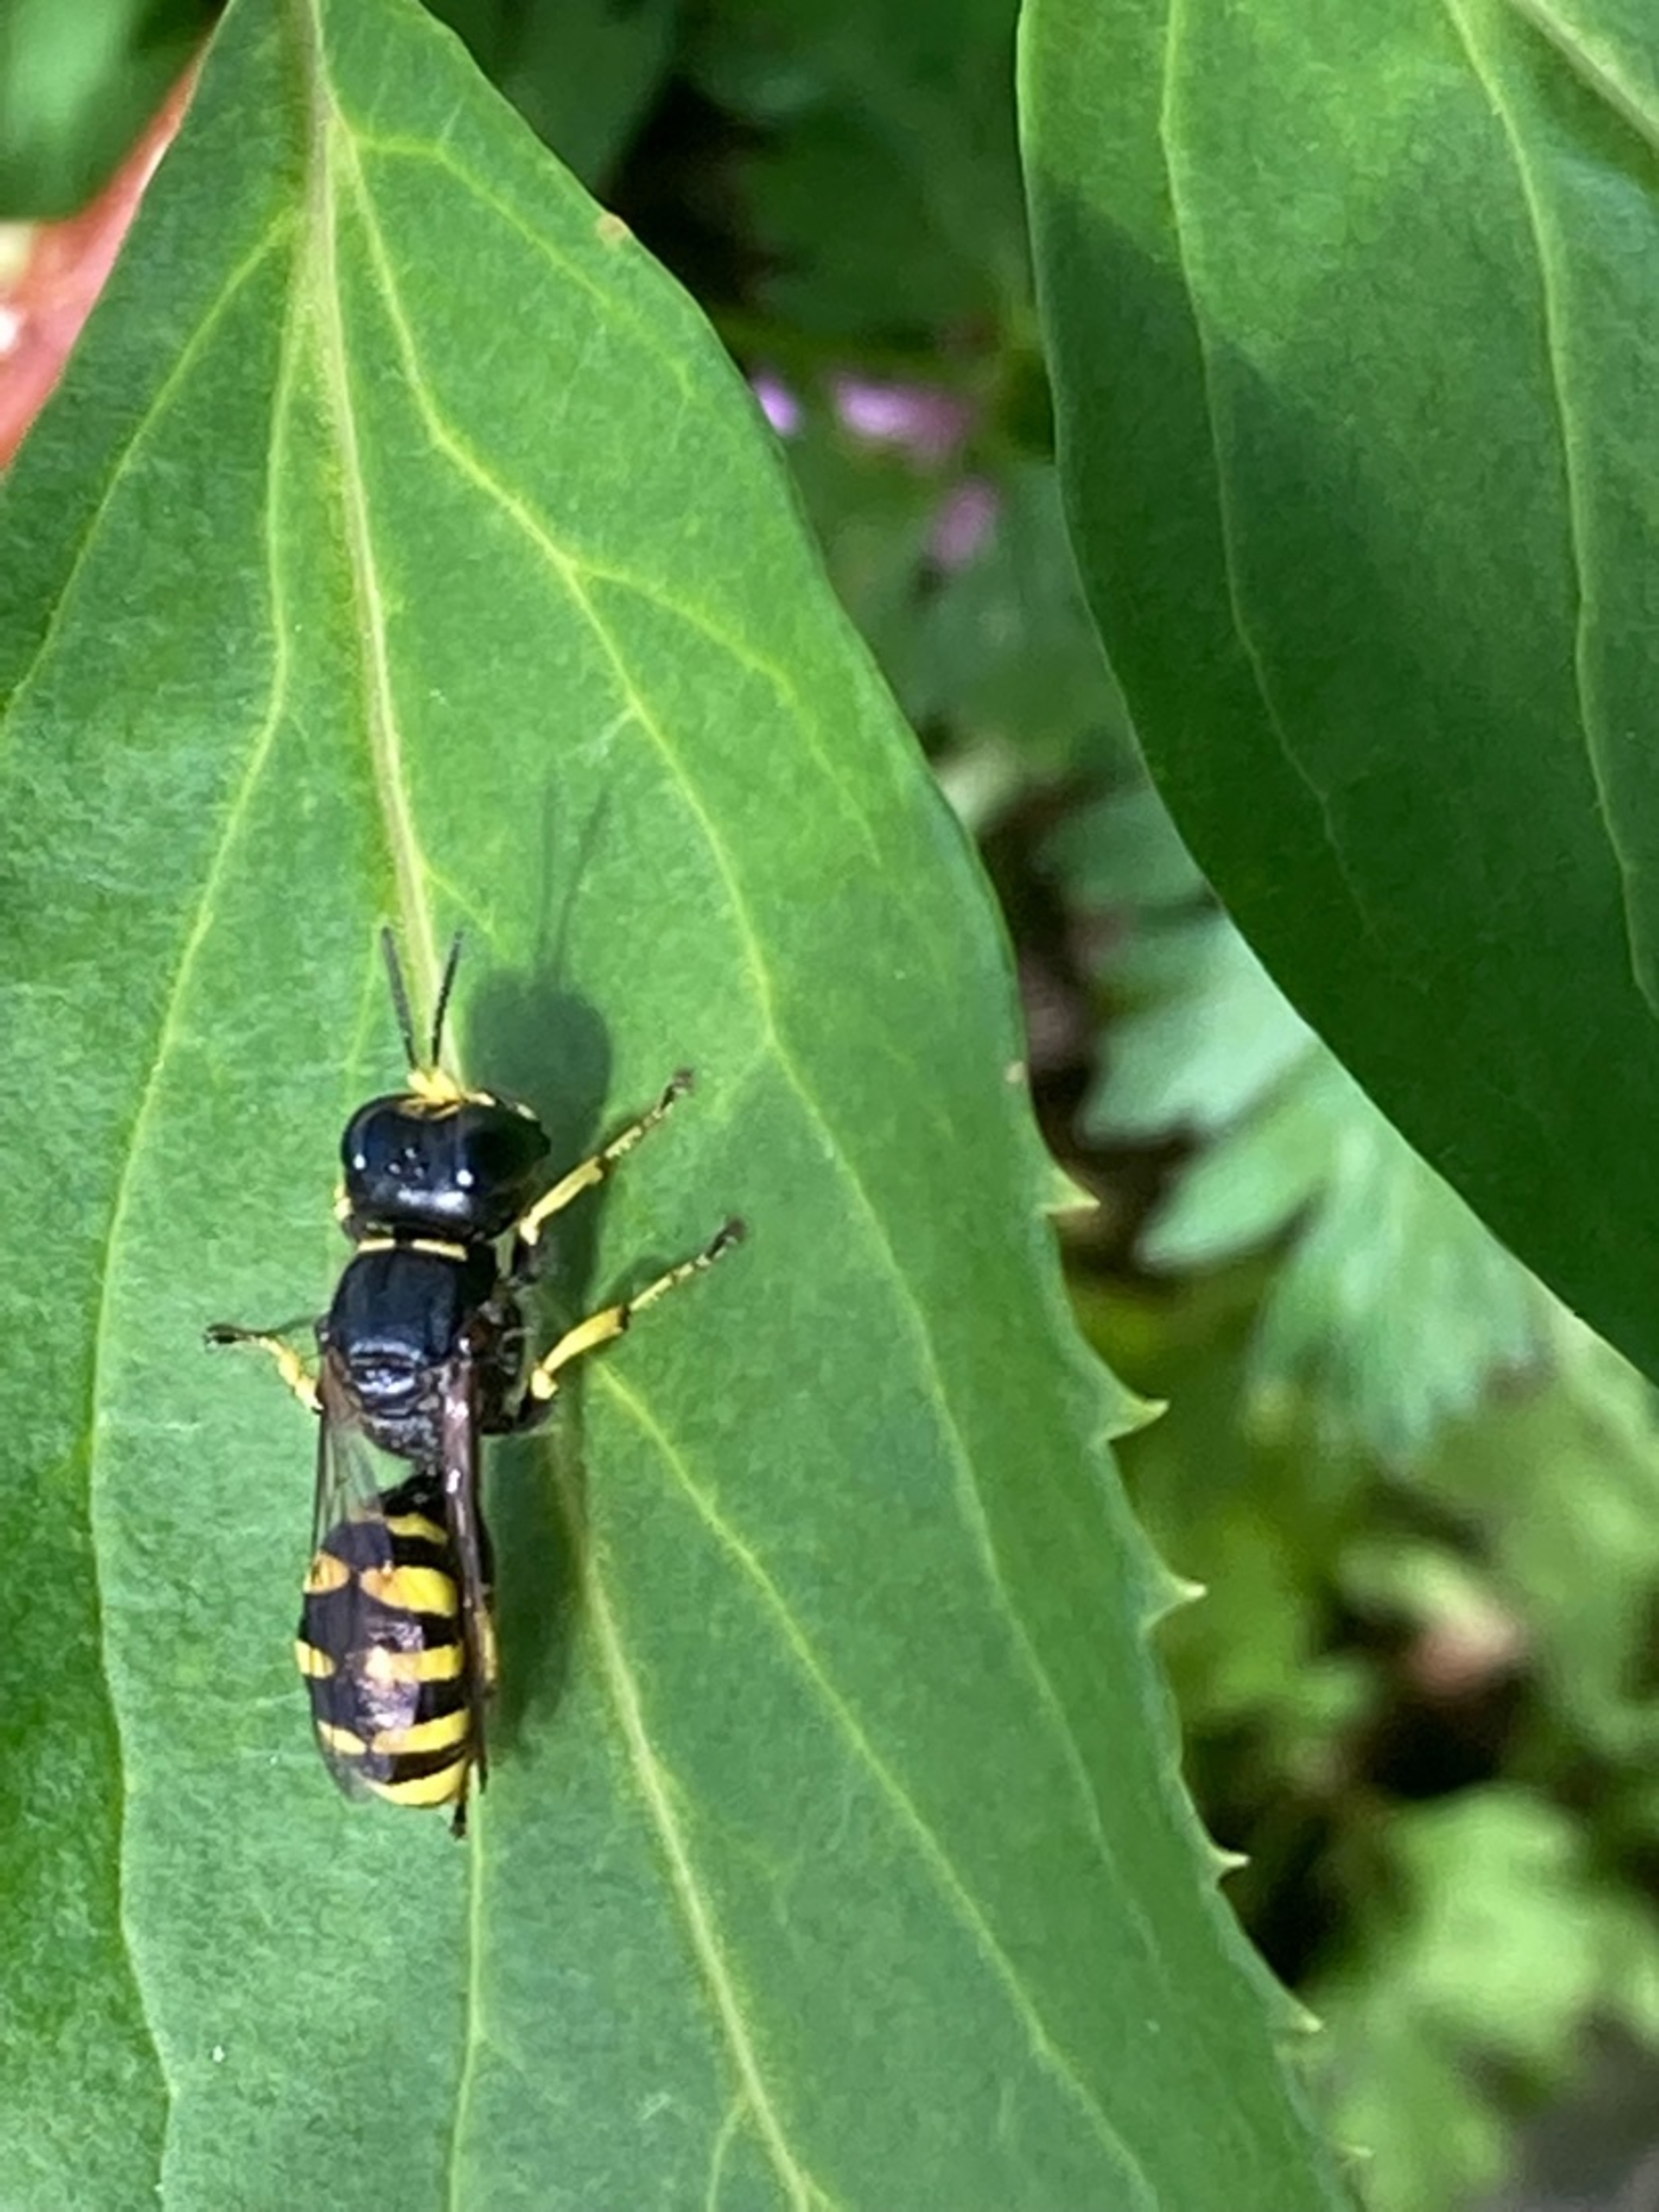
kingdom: Animalia
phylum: Arthropoda
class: Insecta
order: Hymenoptera
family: Crabronidae
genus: Ectemnius
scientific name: Ectemnius
